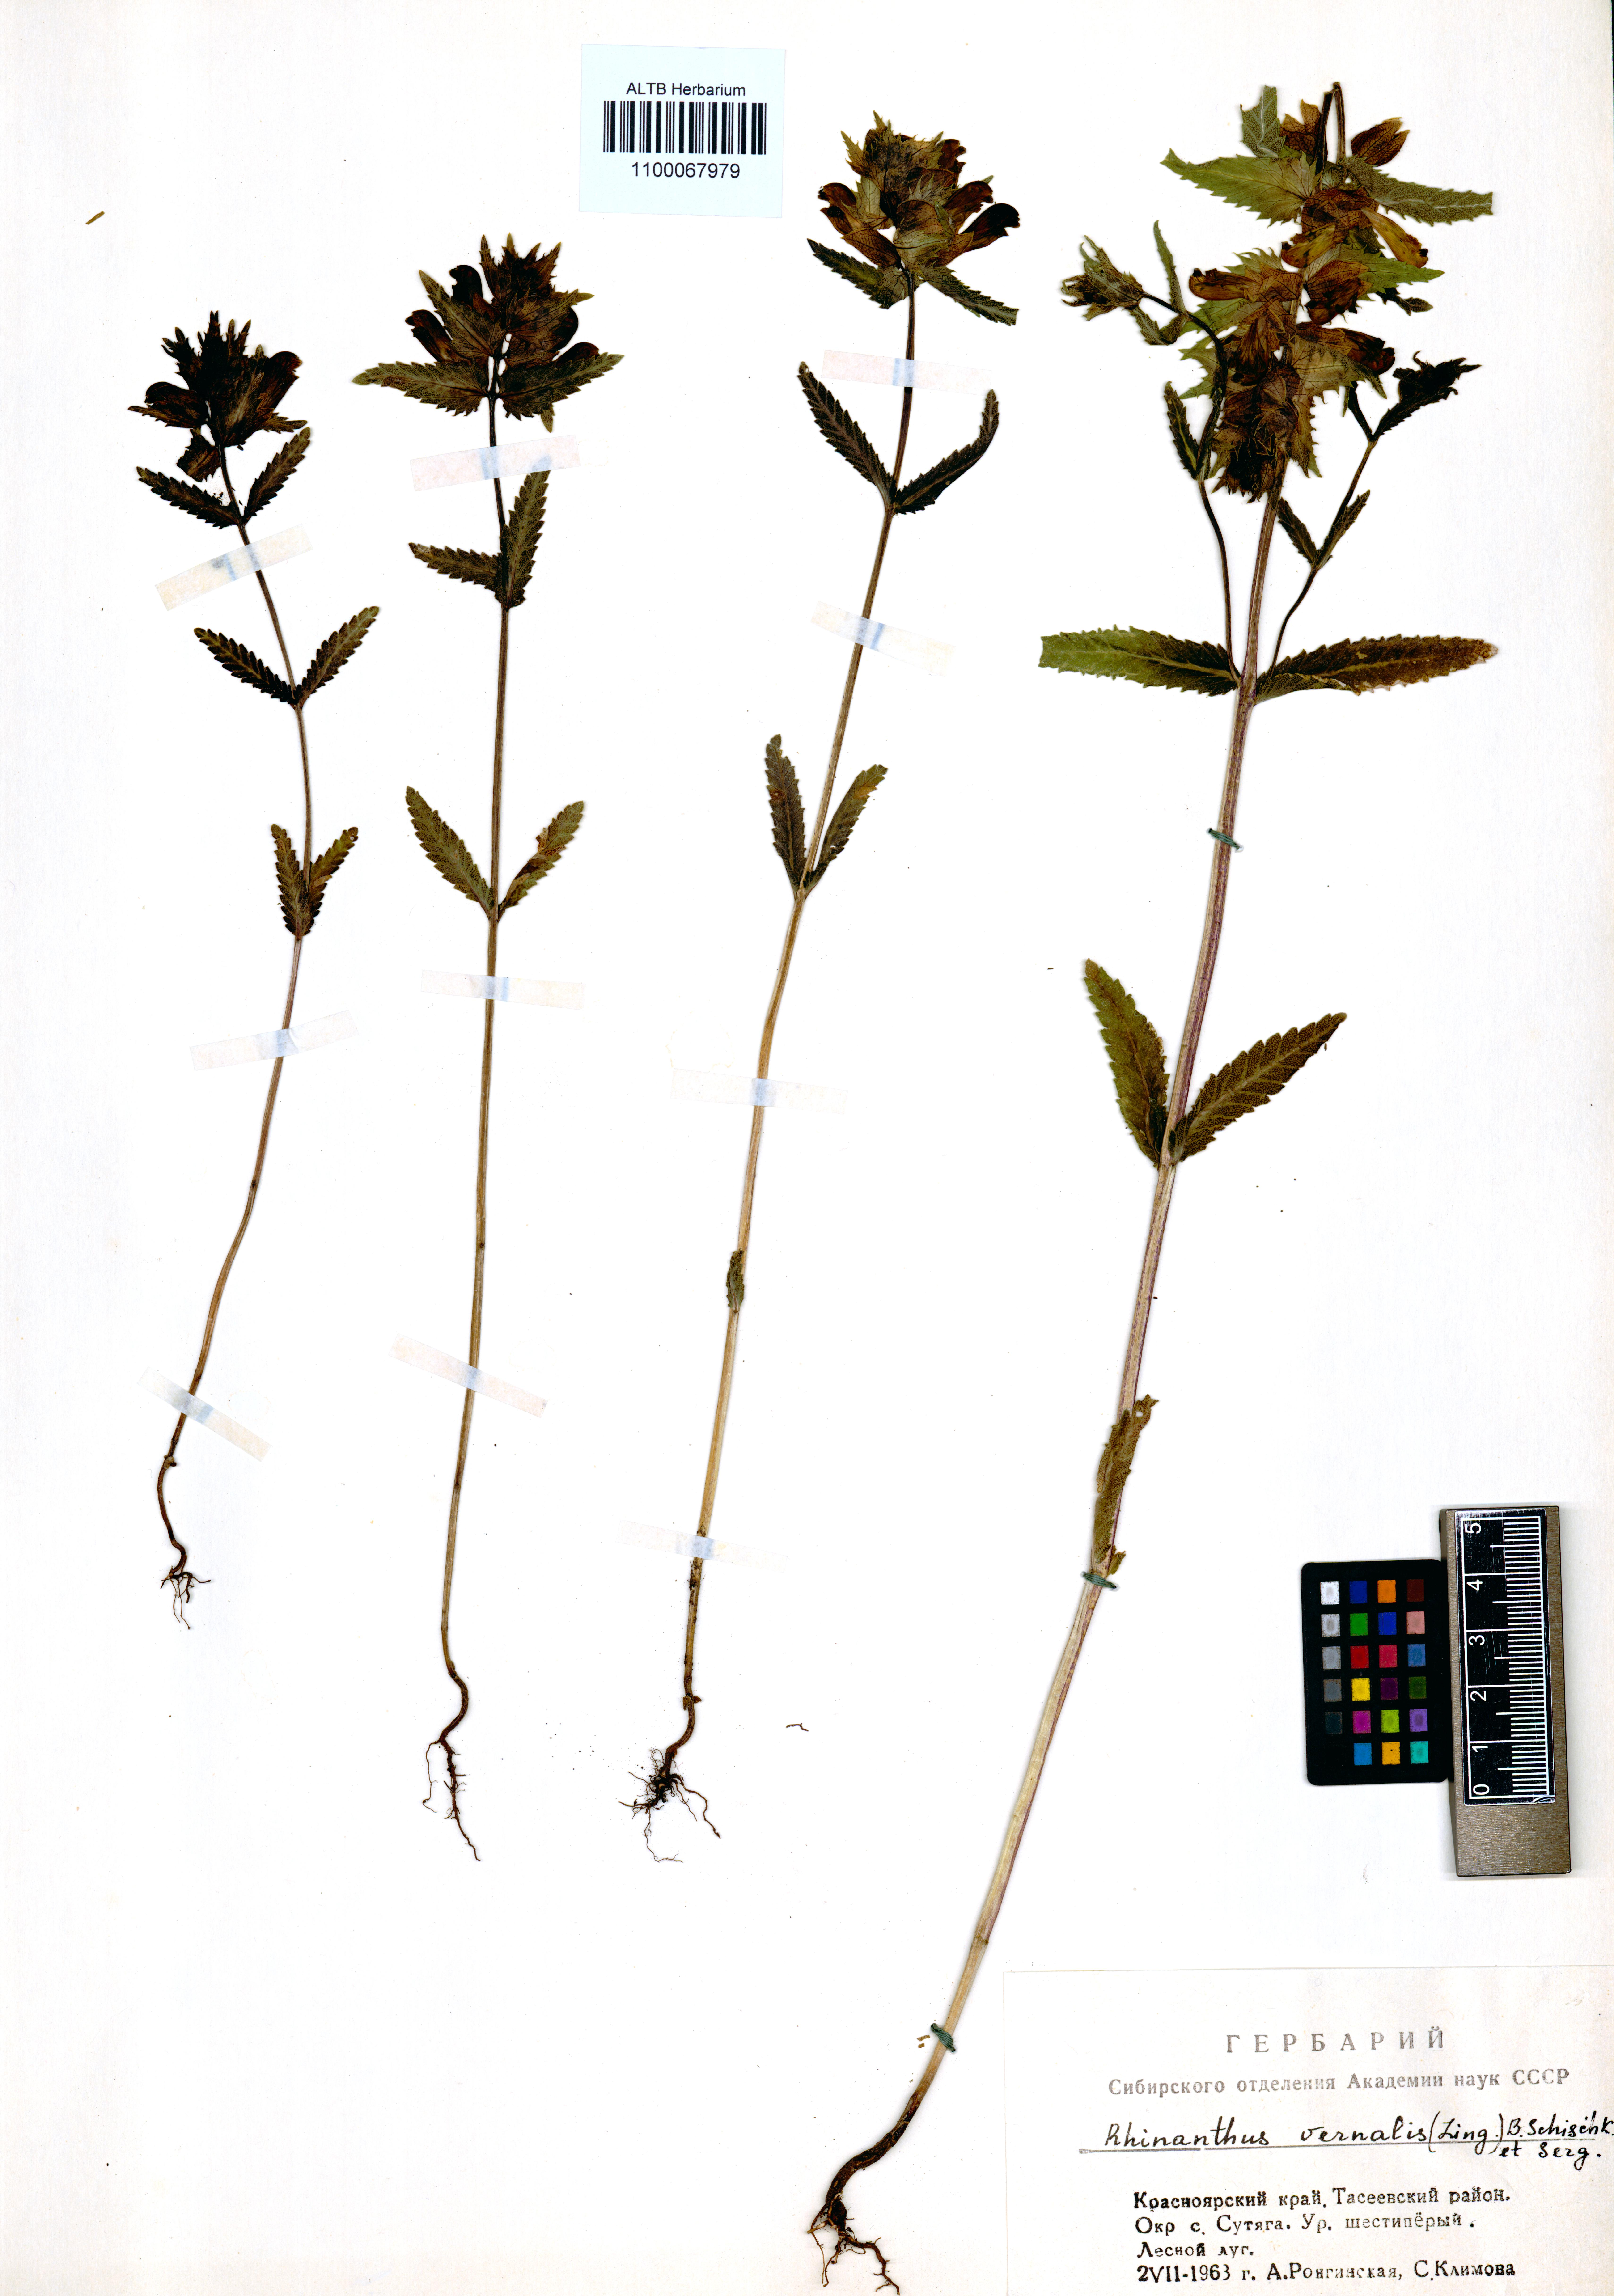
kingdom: Plantae
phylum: Tracheophyta
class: Magnoliopsida
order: Lamiales
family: Orobanchaceae
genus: Rhinanthus
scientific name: Rhinanthus serotinus
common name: Late-flowering yellow rattle
